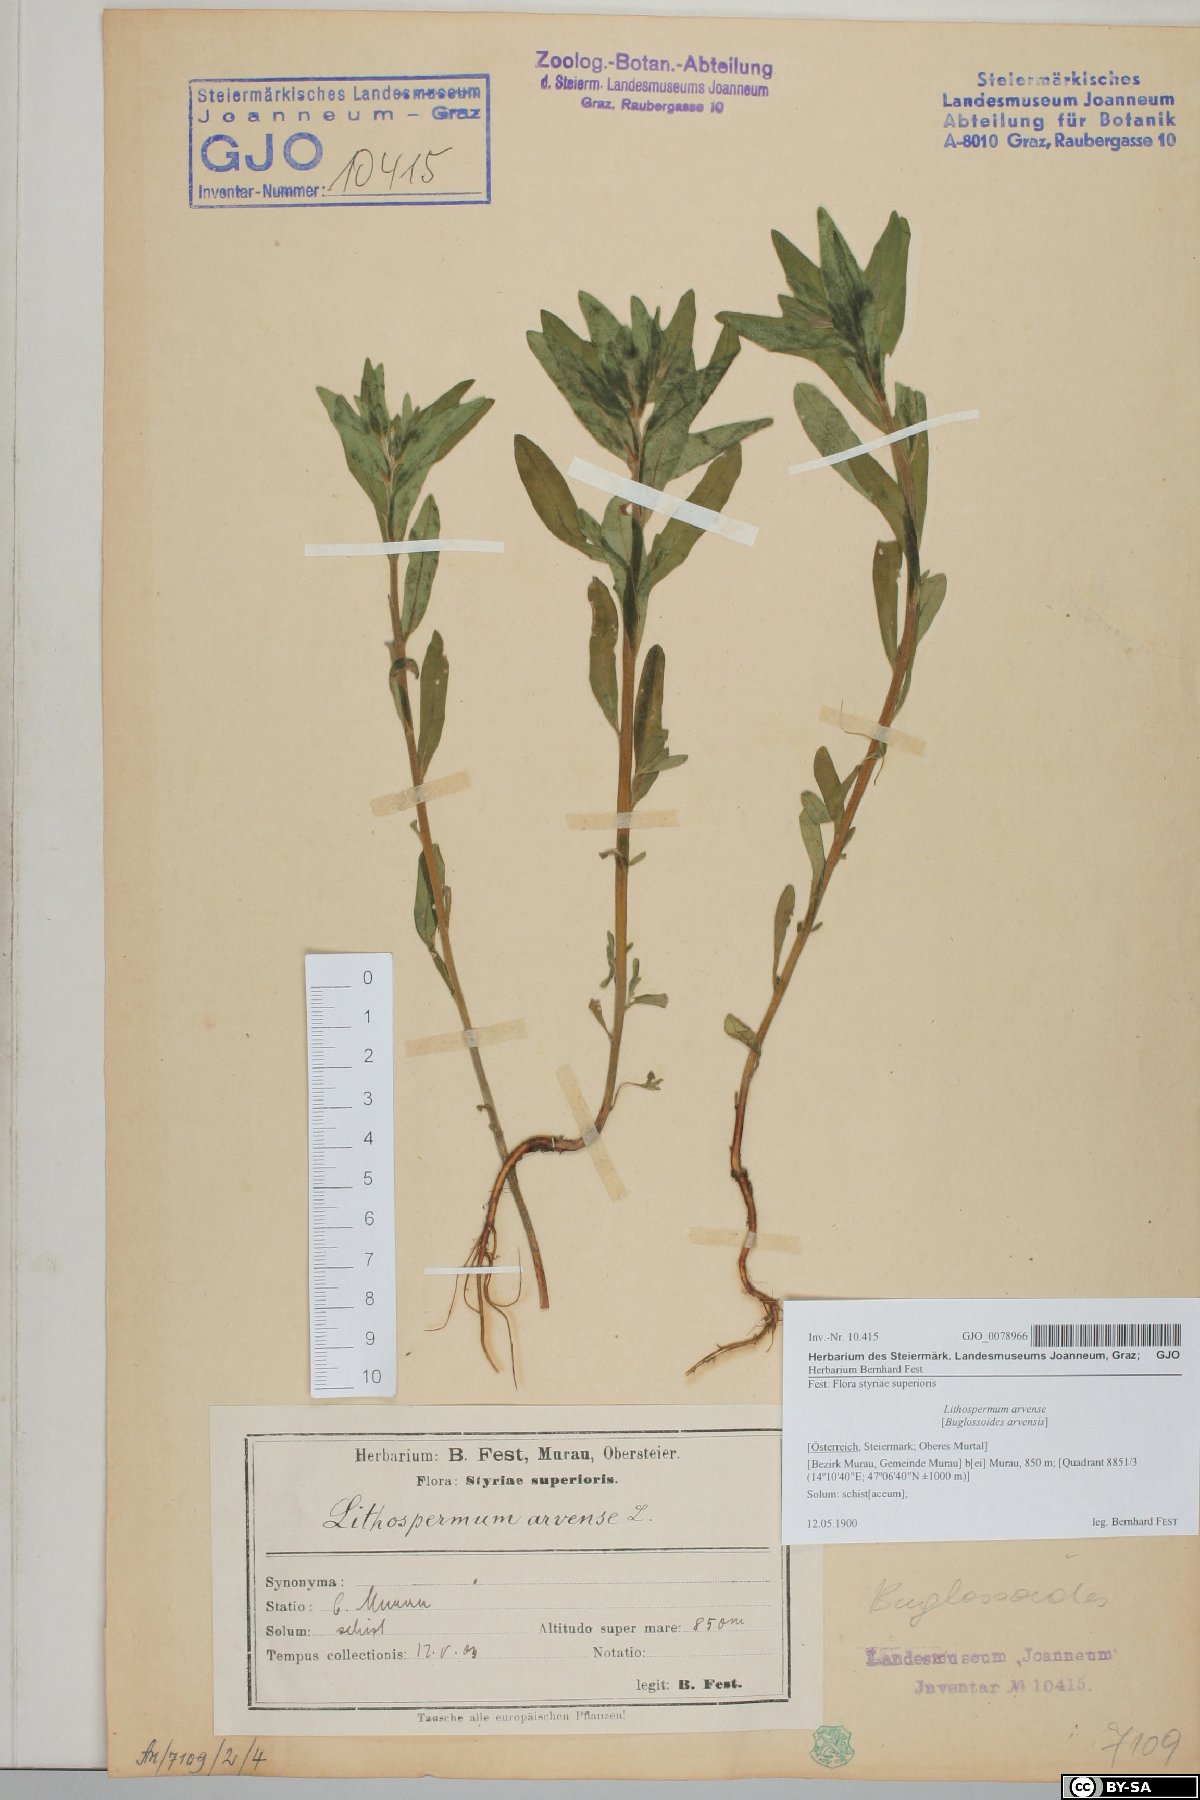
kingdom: Plantae
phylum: Tracheophyta
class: Magnoliopsida
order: Boraginales
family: Boraginaceae
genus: Buglossoides
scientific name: Buglossoides arvensis
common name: Corn gromwell
